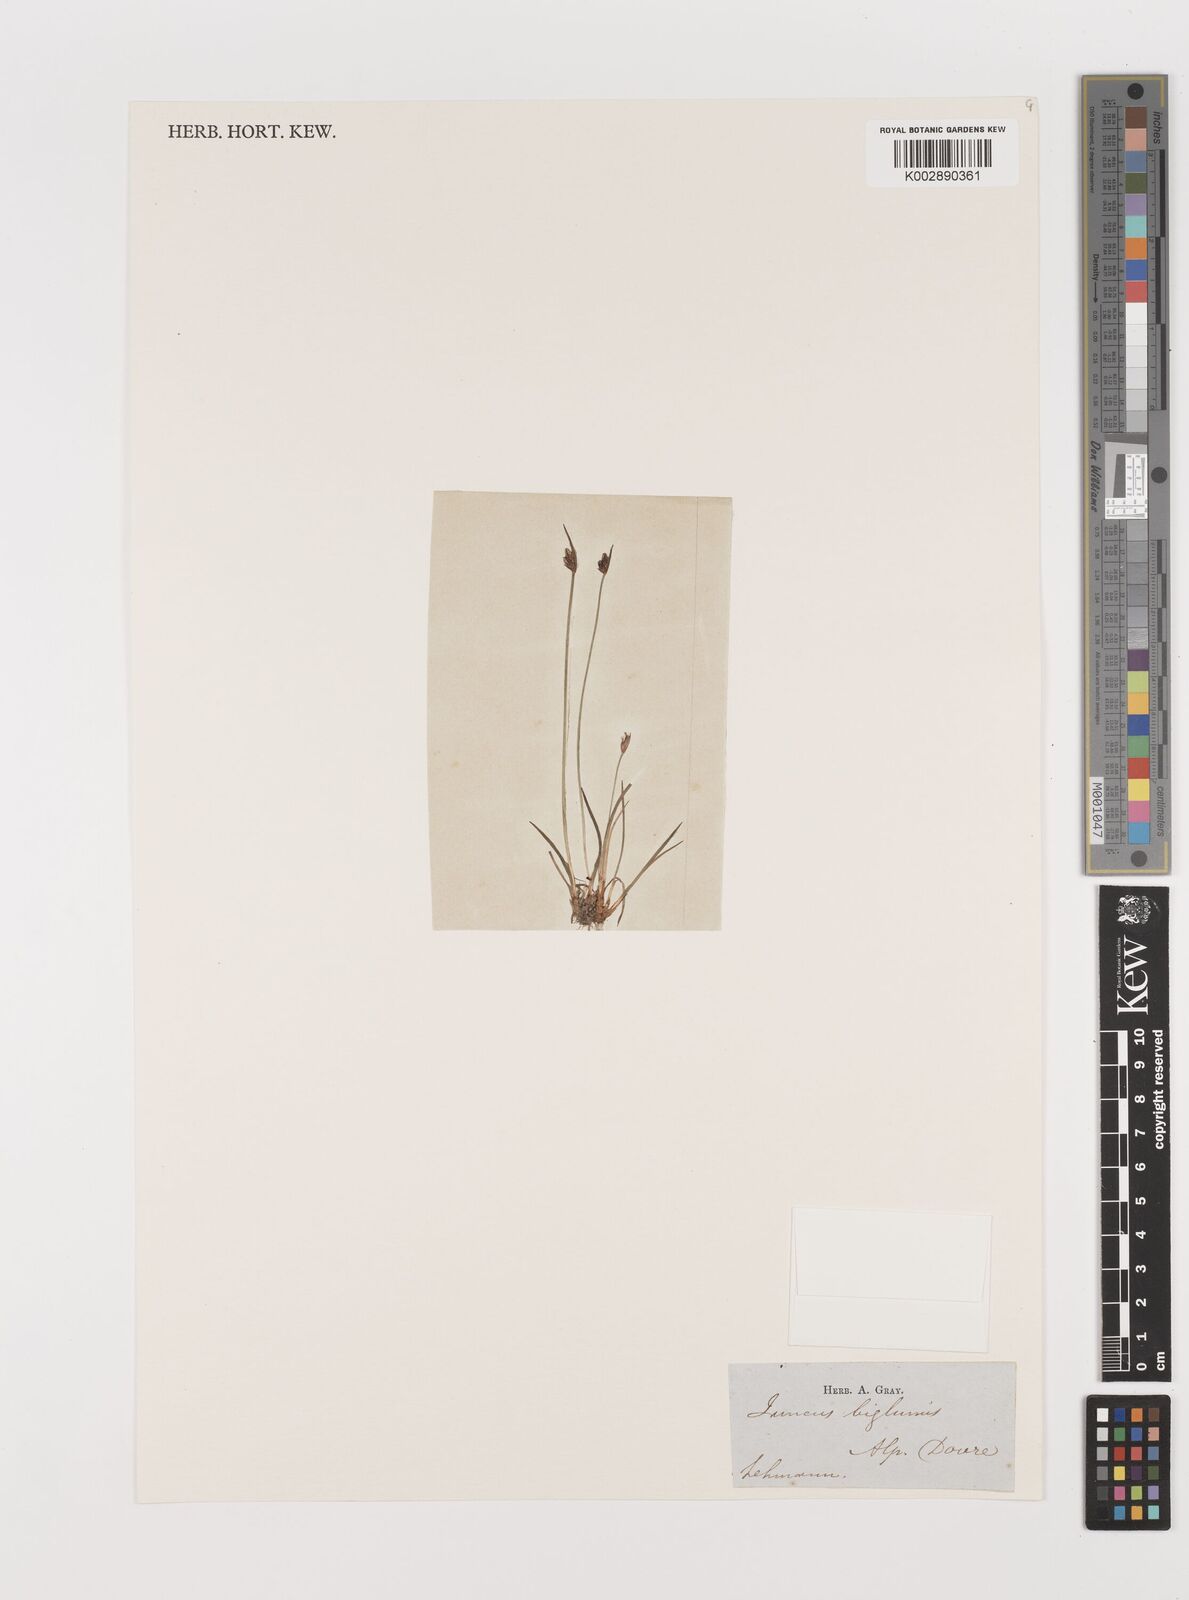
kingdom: Plantae
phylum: Tracheophyta
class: Liliopsida
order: Poales
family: Juncaceae
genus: Juncus
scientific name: Juncus biglumis
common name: Two-flowered rush
